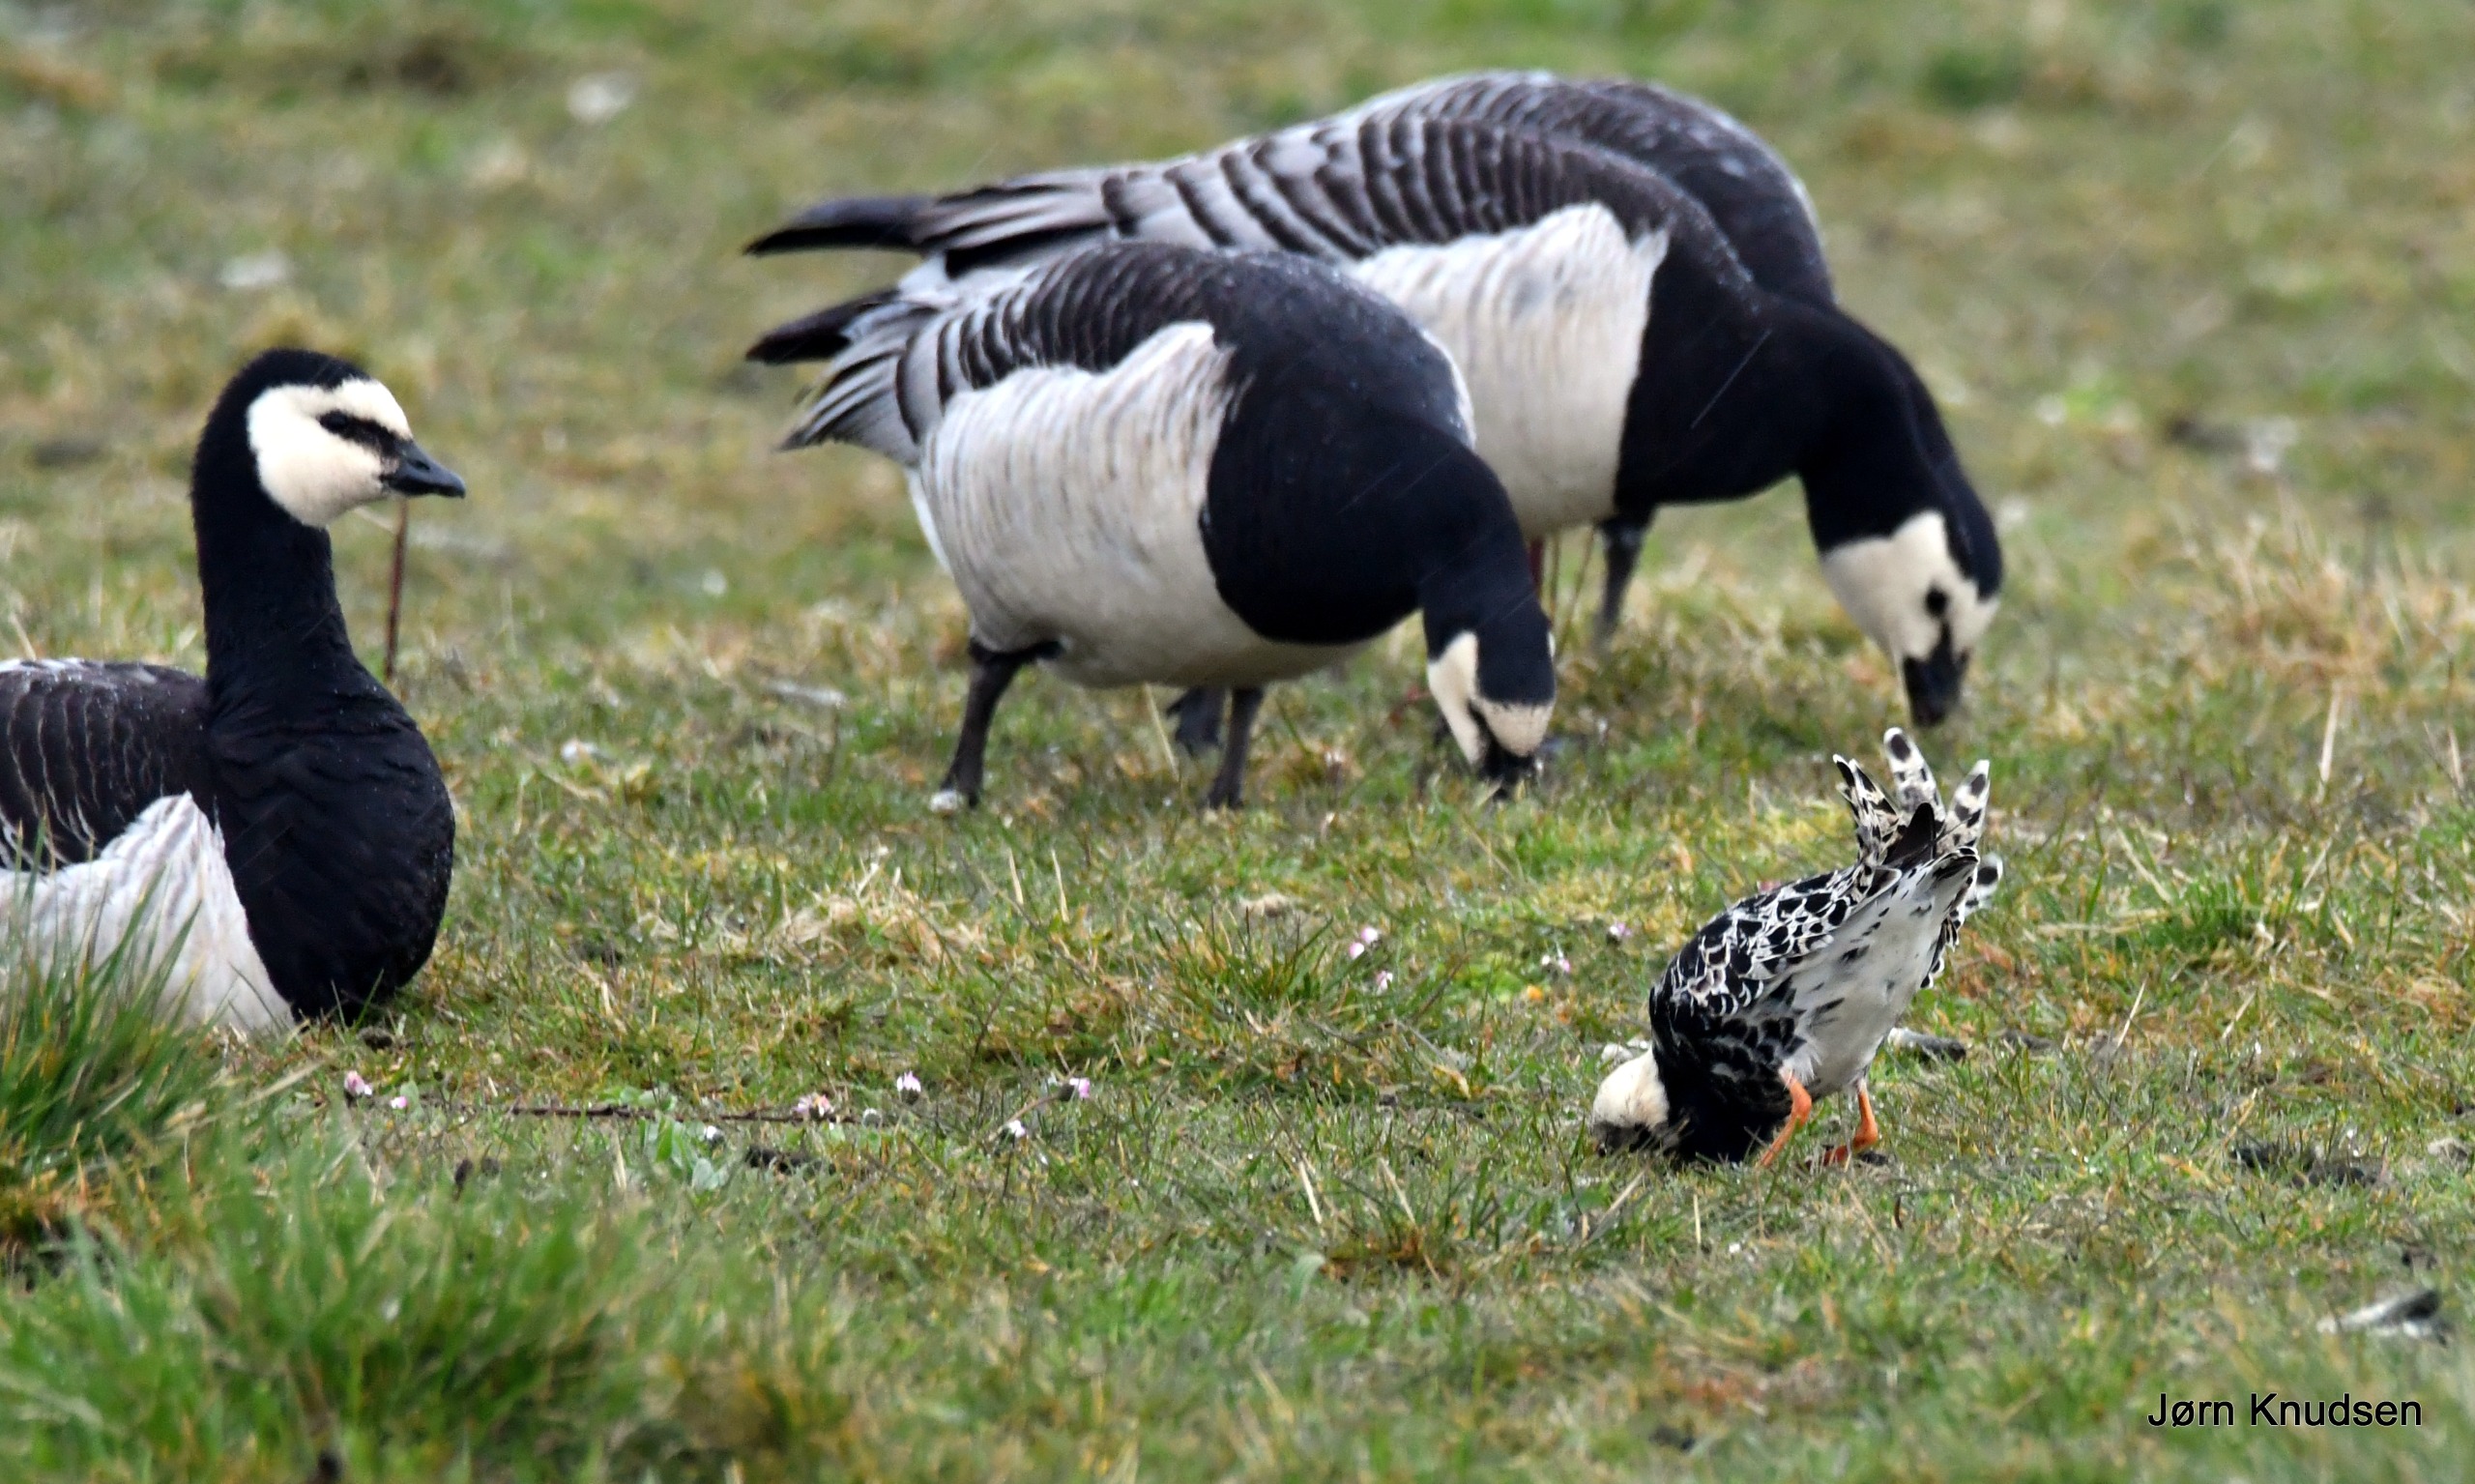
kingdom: Animalia
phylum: Chordata
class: Aves
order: Charadriiformes
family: Scolopacidae
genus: Calidris
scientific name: Calidris pugnax
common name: Brushane
